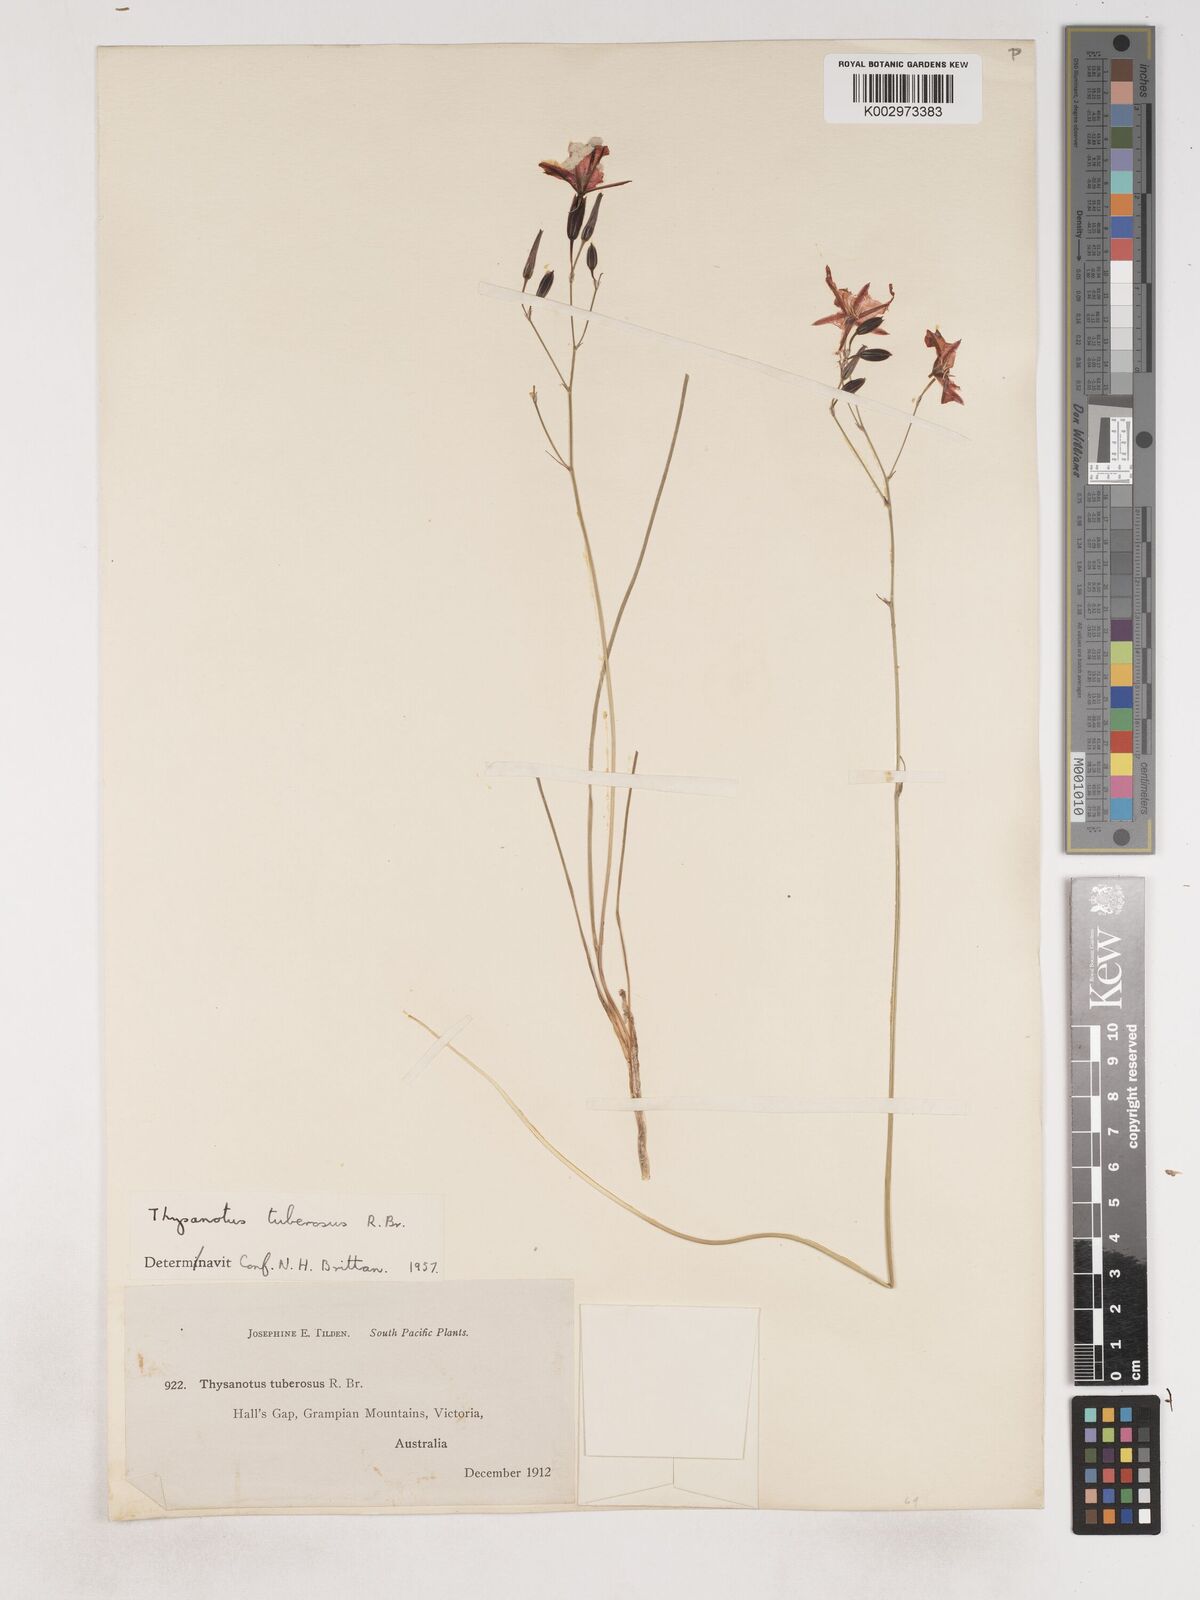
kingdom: Plantae
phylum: Tracheophyta
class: Liliopsida
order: Asparagales
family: Asparagaceae
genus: Thysanotus
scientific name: Thysanotus tuberosus
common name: Common fringed-lily
